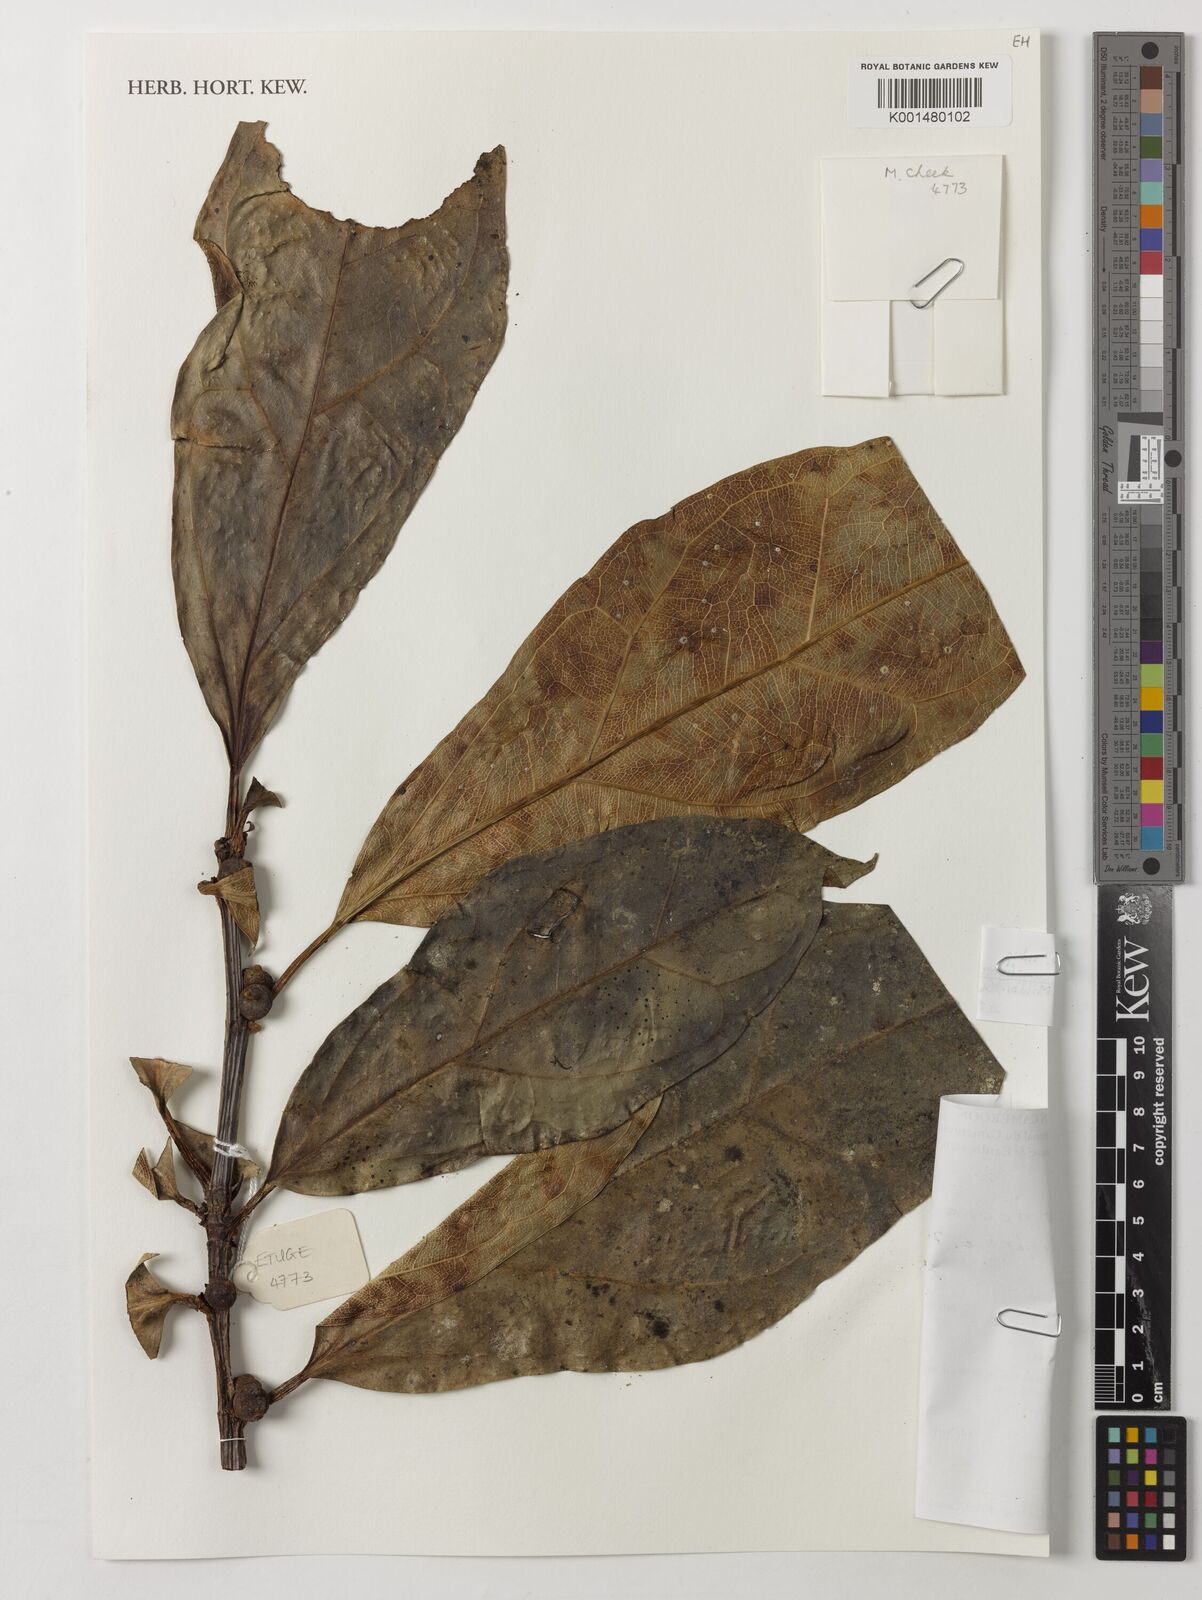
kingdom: Plantae
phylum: Tracheophyta
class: Magnoliopsida
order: Rosales
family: Moraceae
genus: Ficus
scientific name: Ficus ardisioides
